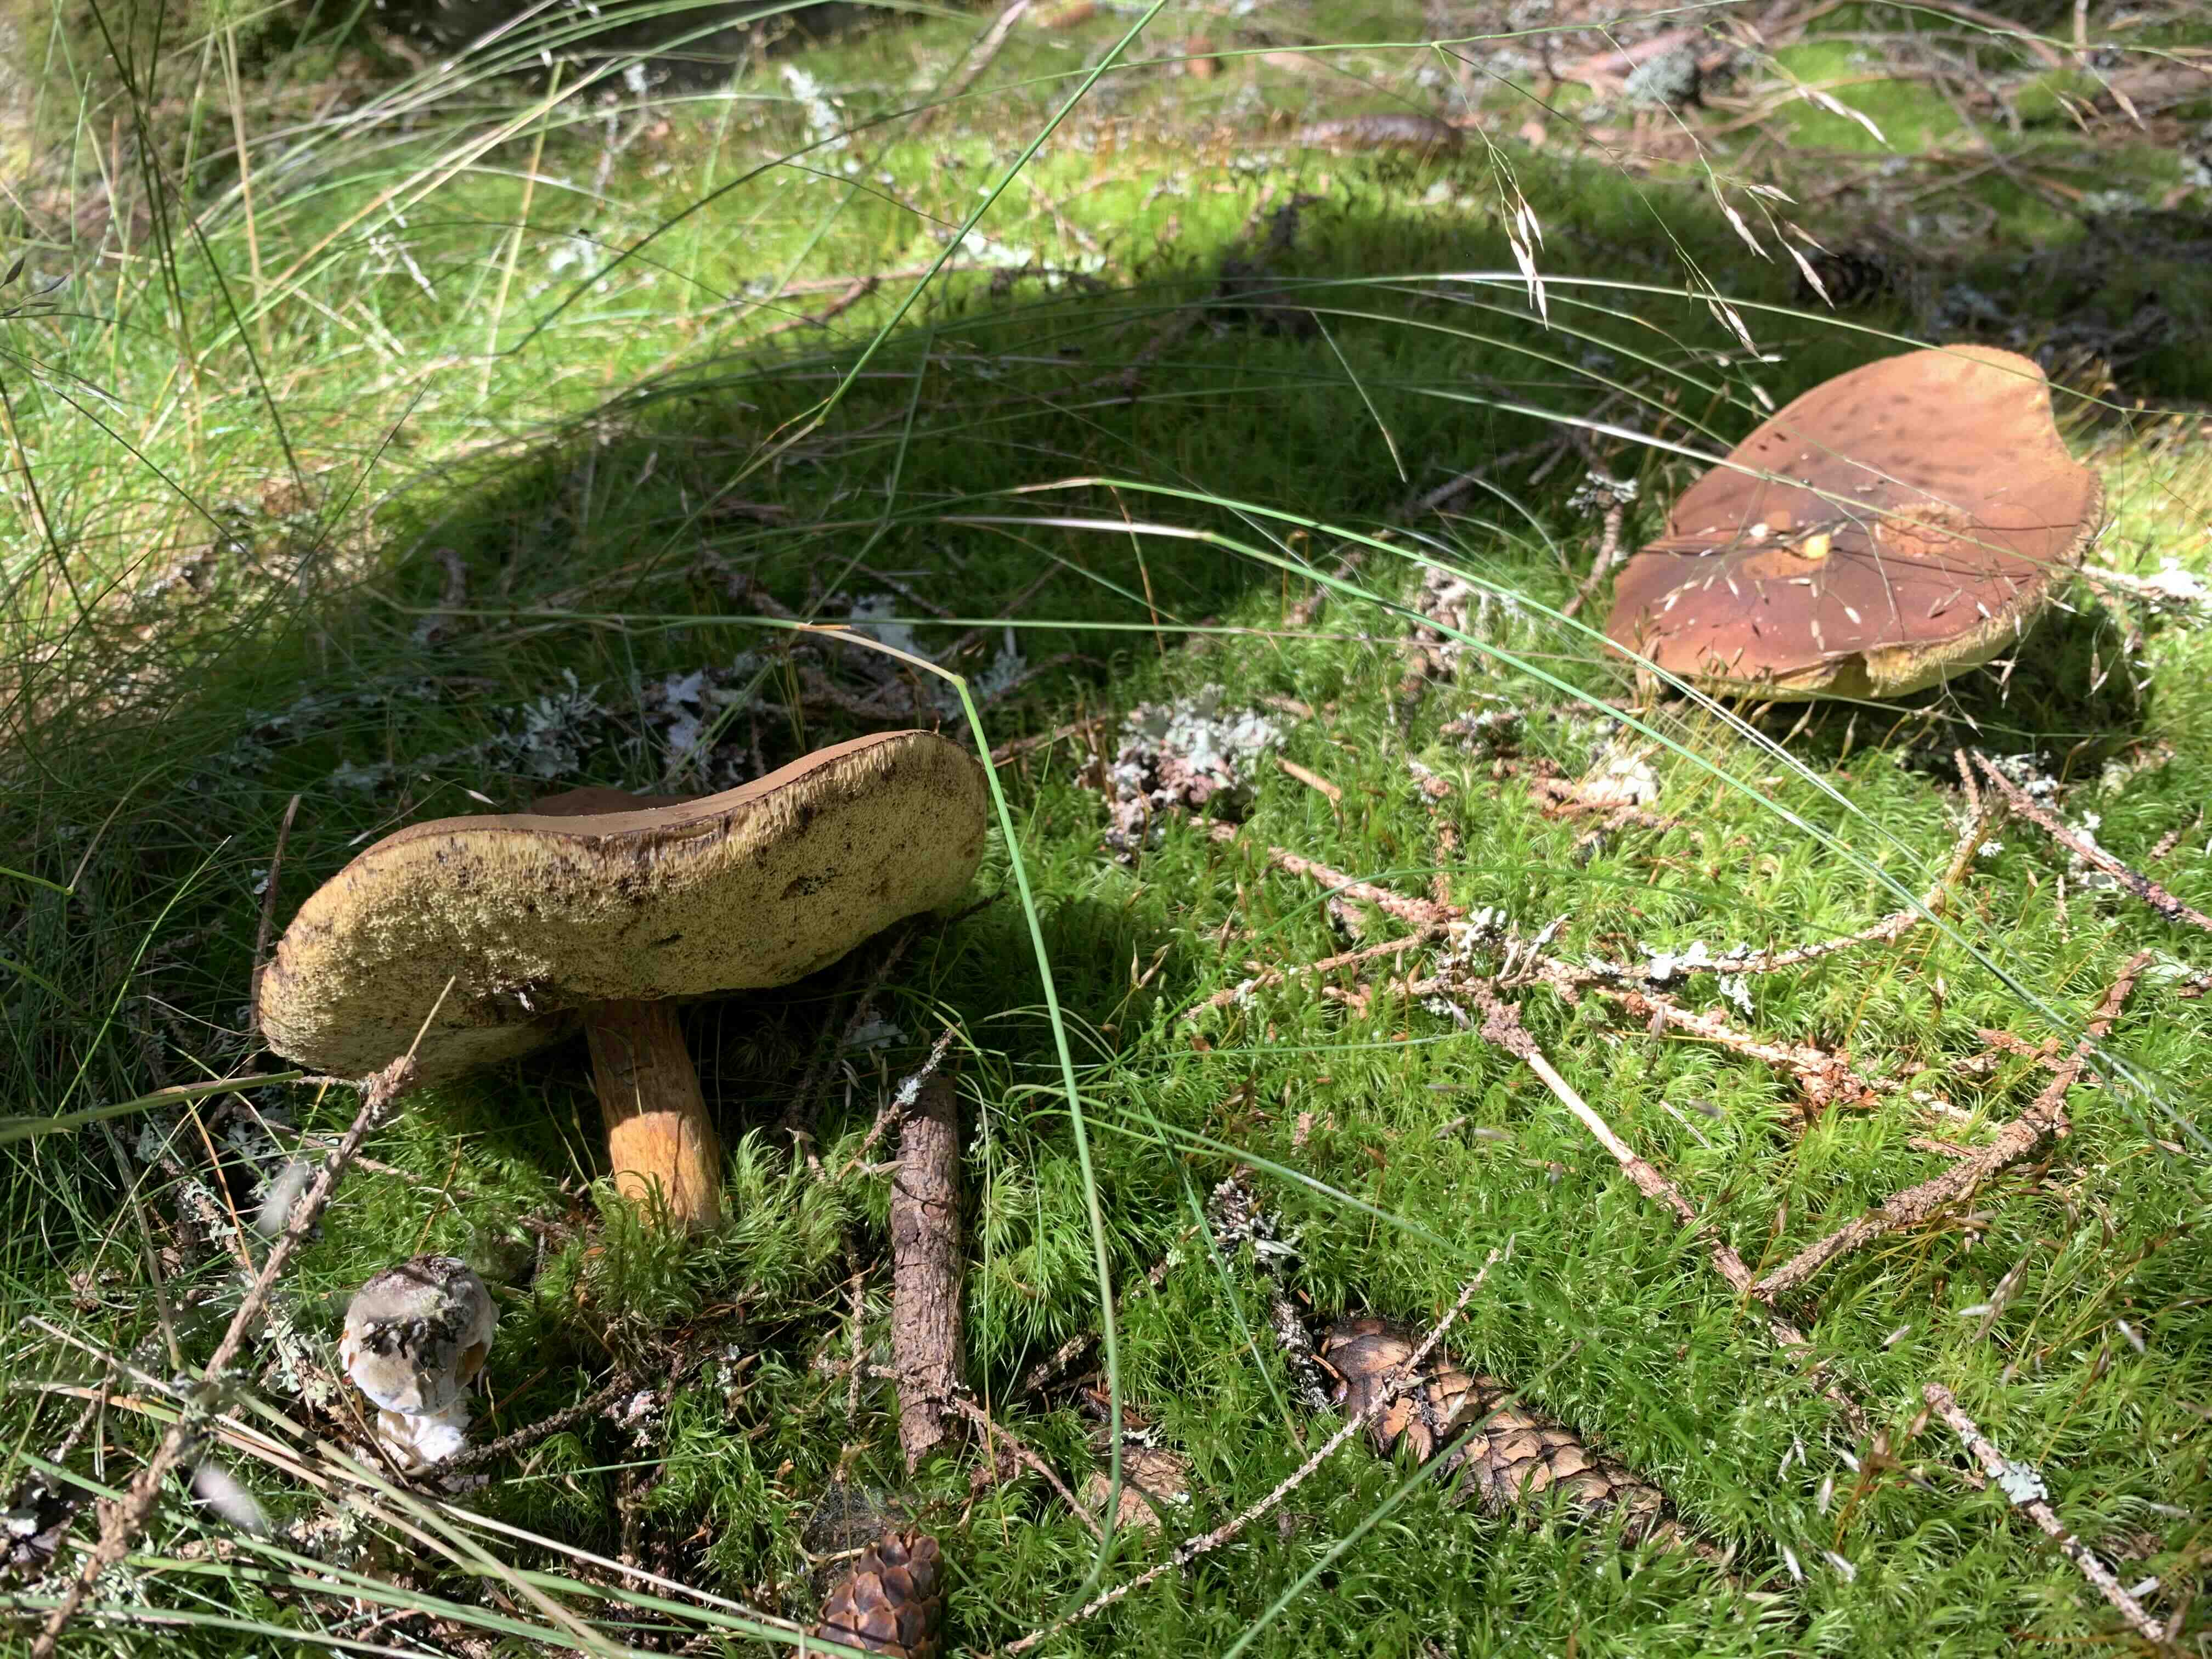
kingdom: Fungi
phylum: Basidiomycota
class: Agaricomycetes
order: Boletales
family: Boletaceae
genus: Imleria
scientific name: Imleria badia
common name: brunstokket rørhat
